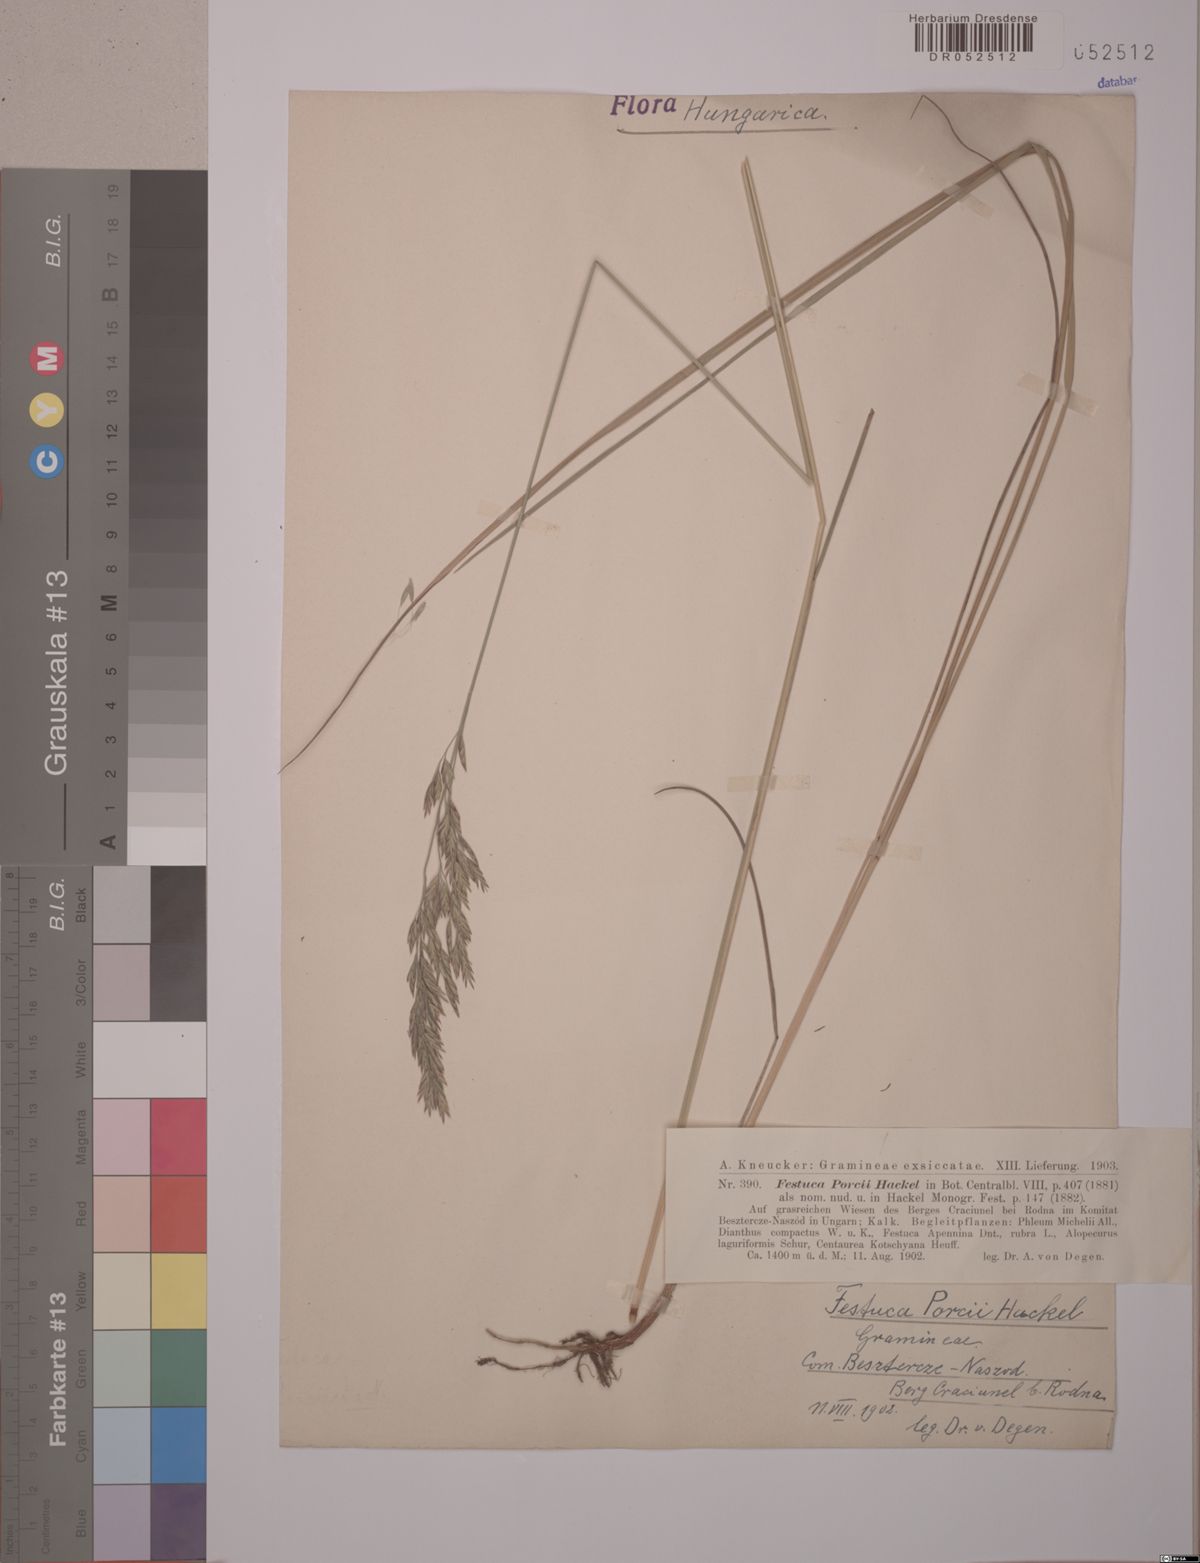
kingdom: Plantae
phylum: Tracheophyta
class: Liliopsida
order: Poales
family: Poaceae
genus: Festuca
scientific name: Festuca porcii
